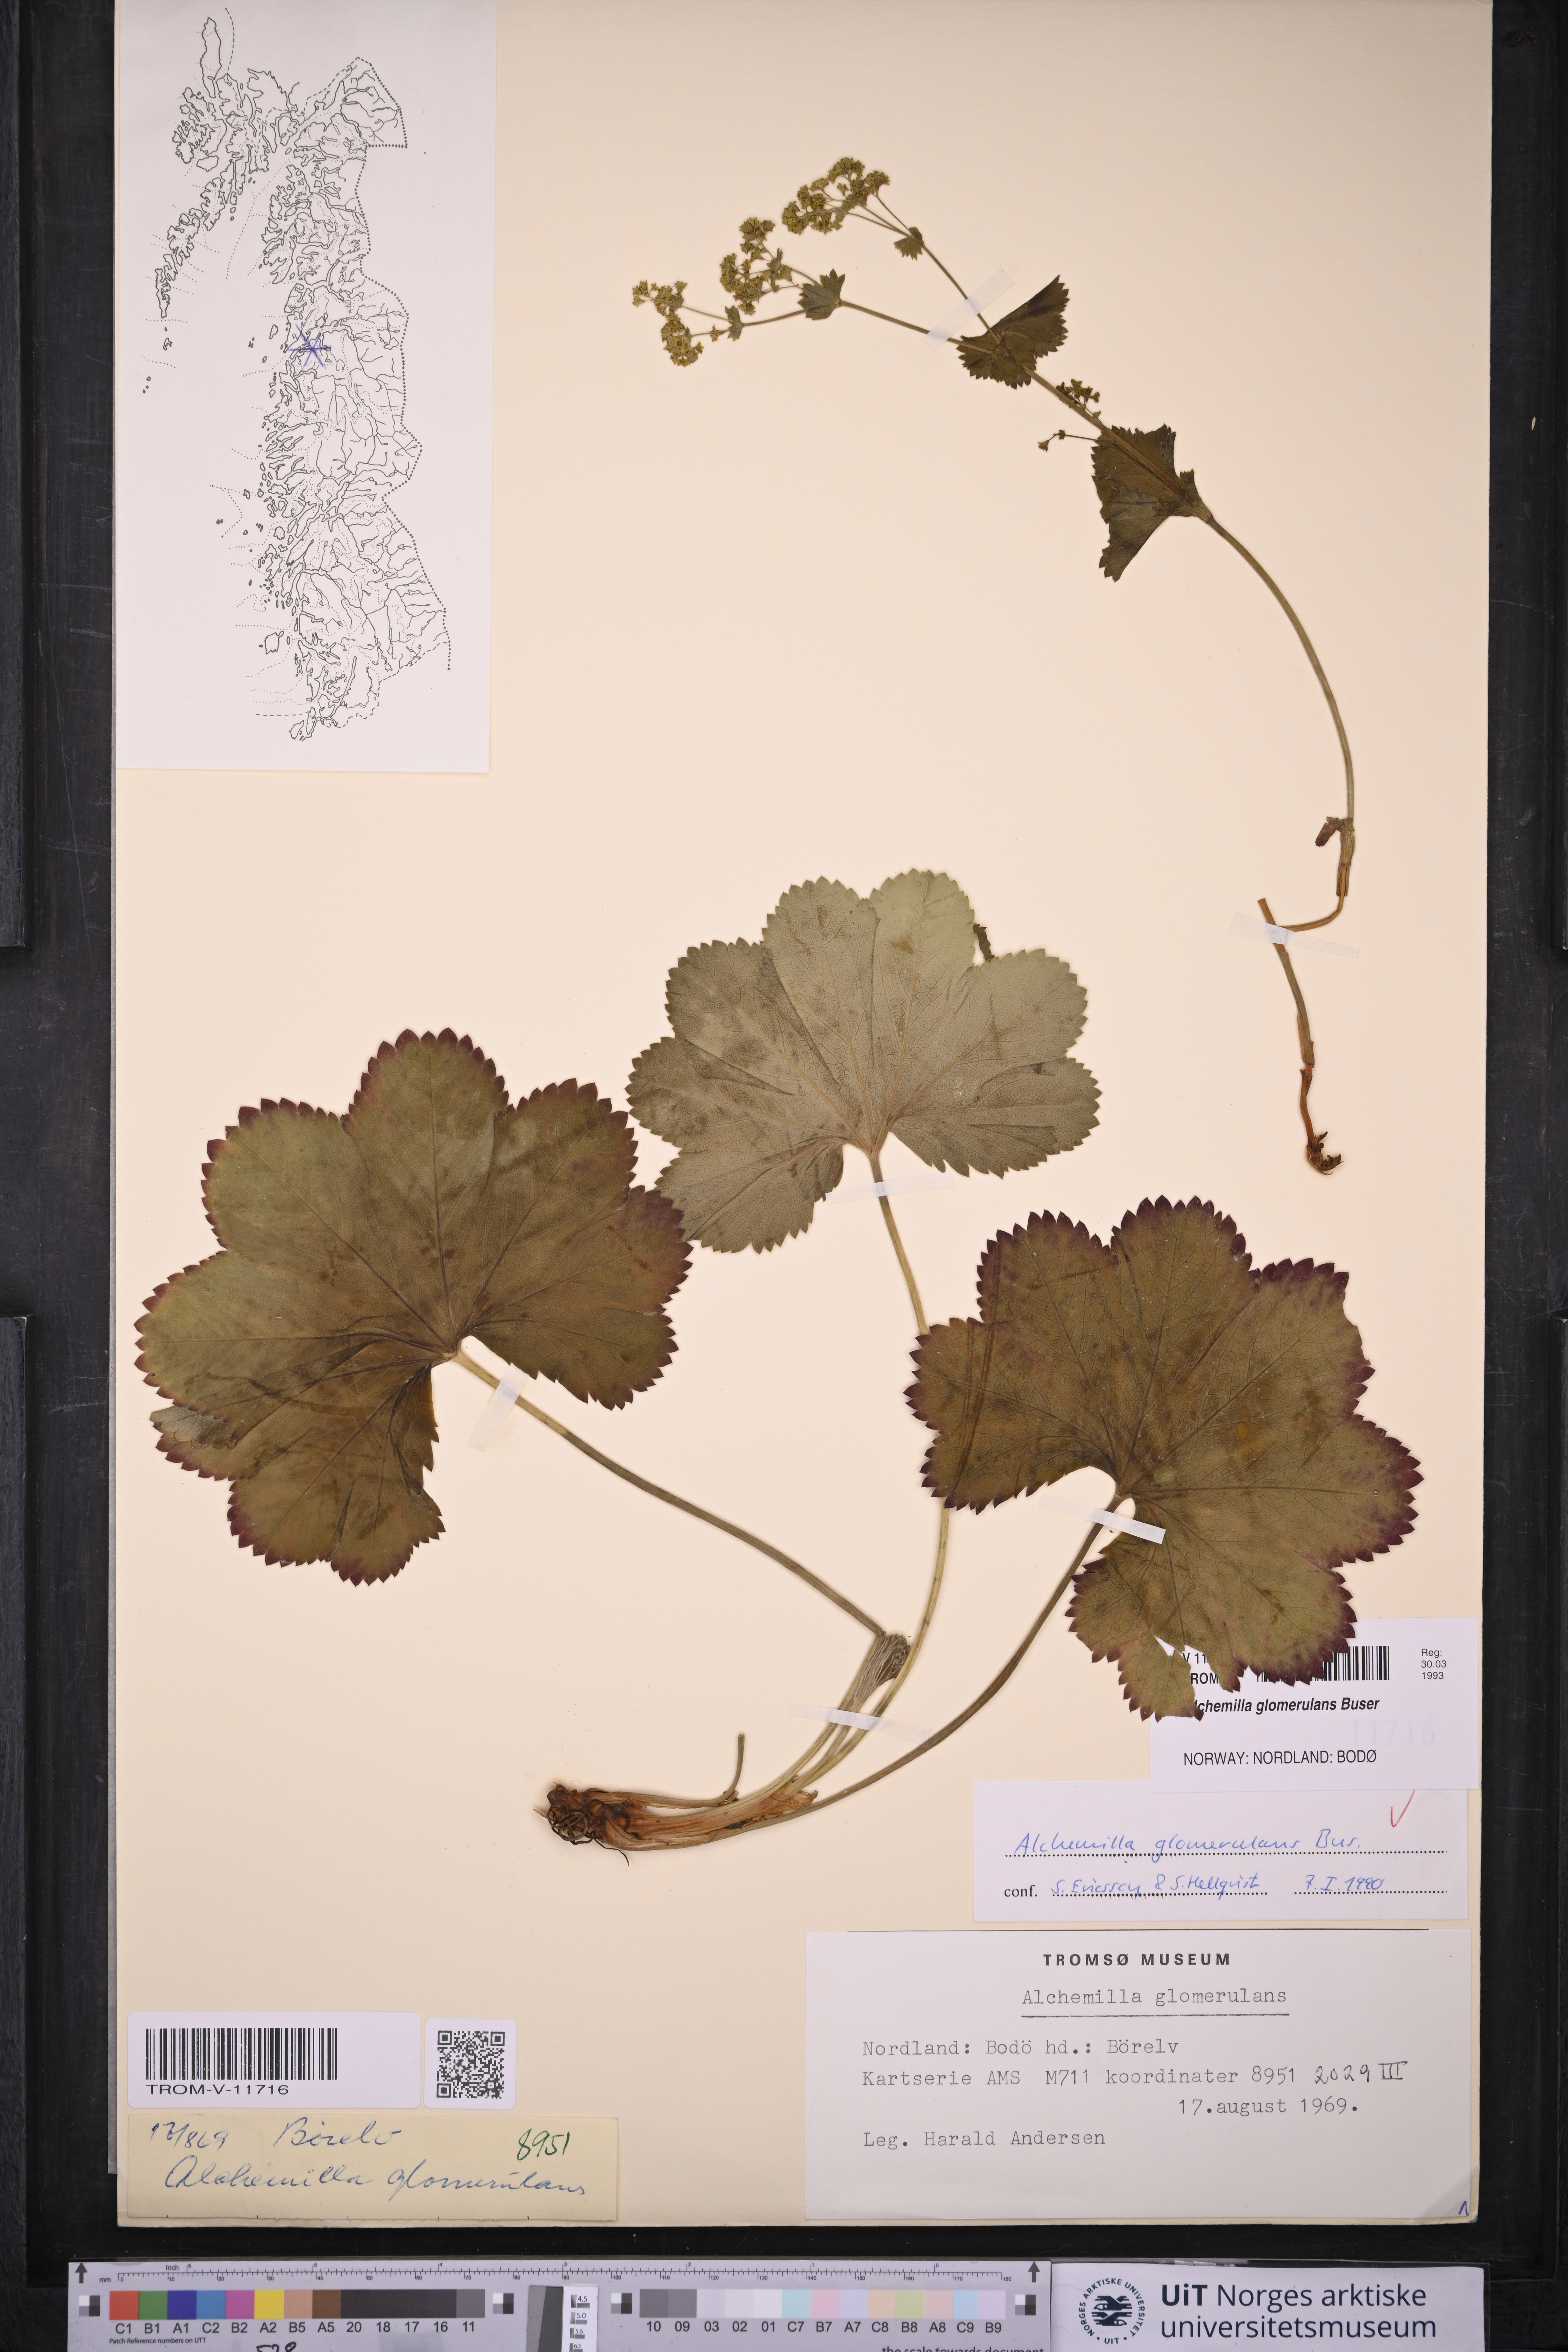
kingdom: Plantae
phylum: Tracheophyta
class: Magnoliopsida
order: Rosales
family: Rosaceae
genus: Alchemilla
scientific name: Alchemilla glomerulans
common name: Clustered lady's mantle
